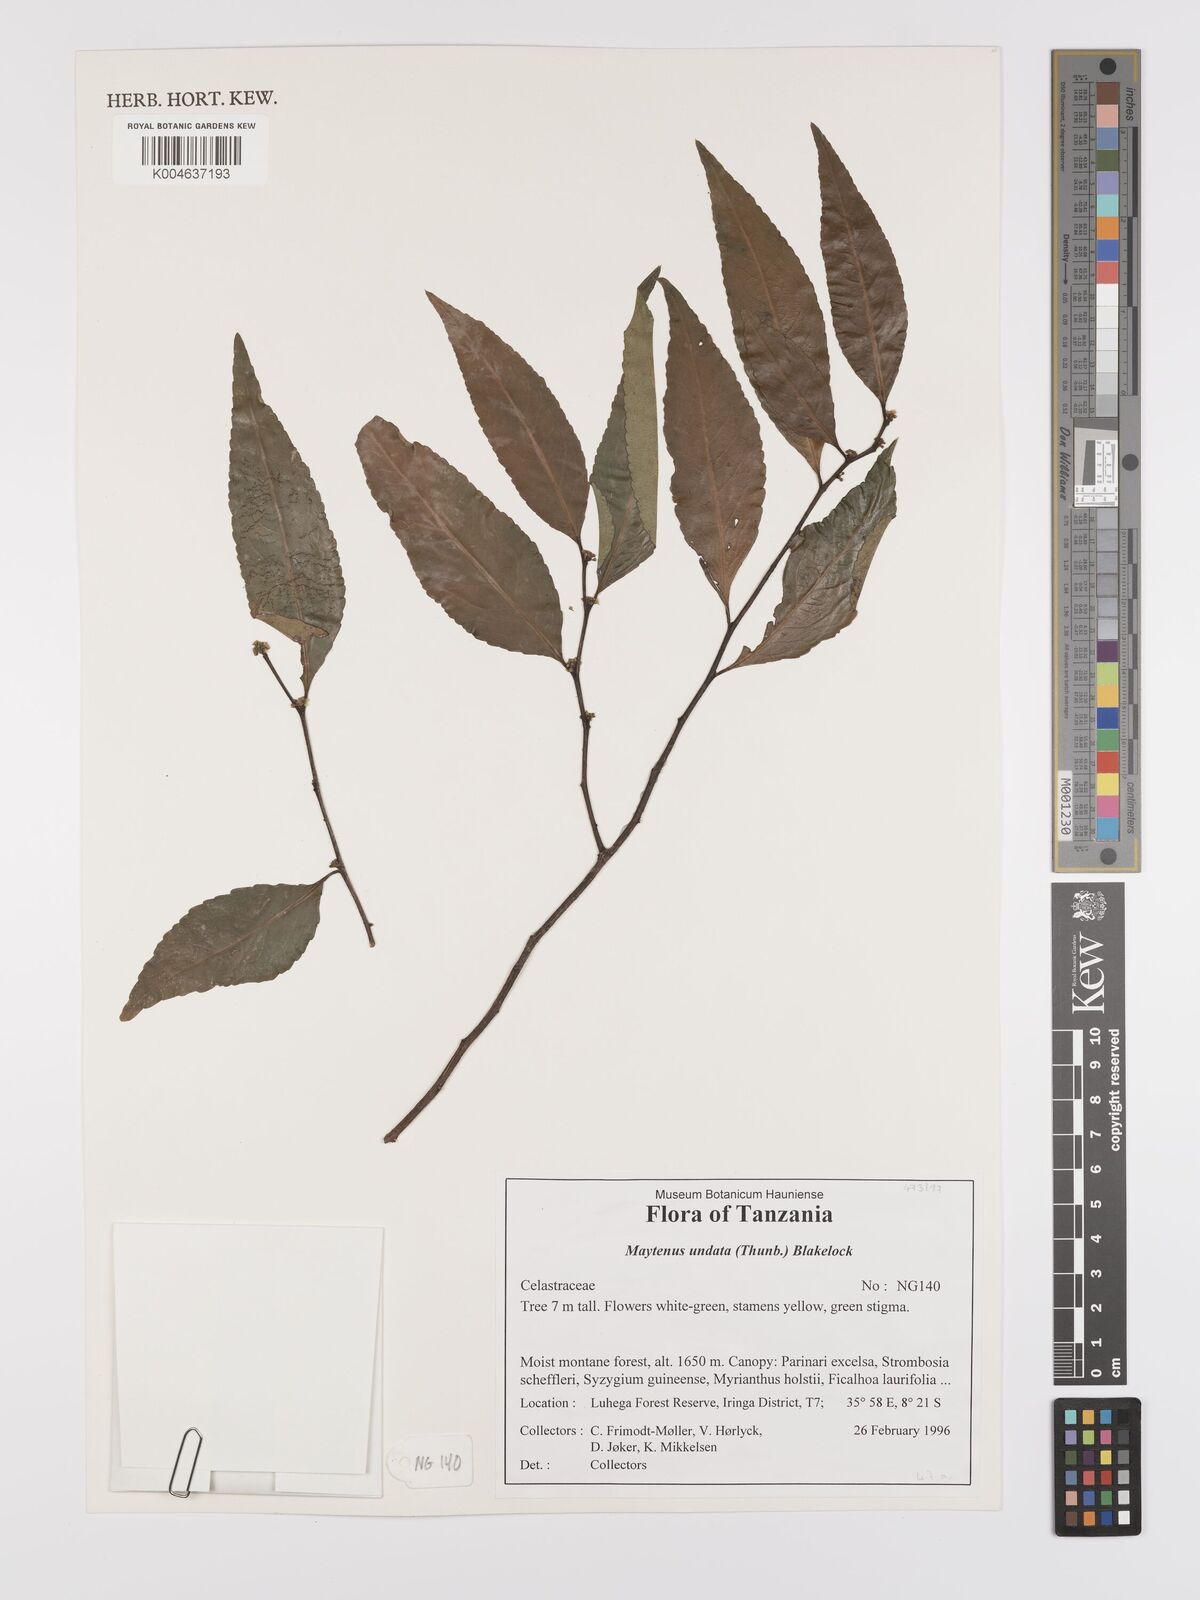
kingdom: Plantae
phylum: Tracheophyta
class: Magnoliopsida
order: Celastrales
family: Celastraceae
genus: Gymnosporia
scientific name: Gymnosporia undata
